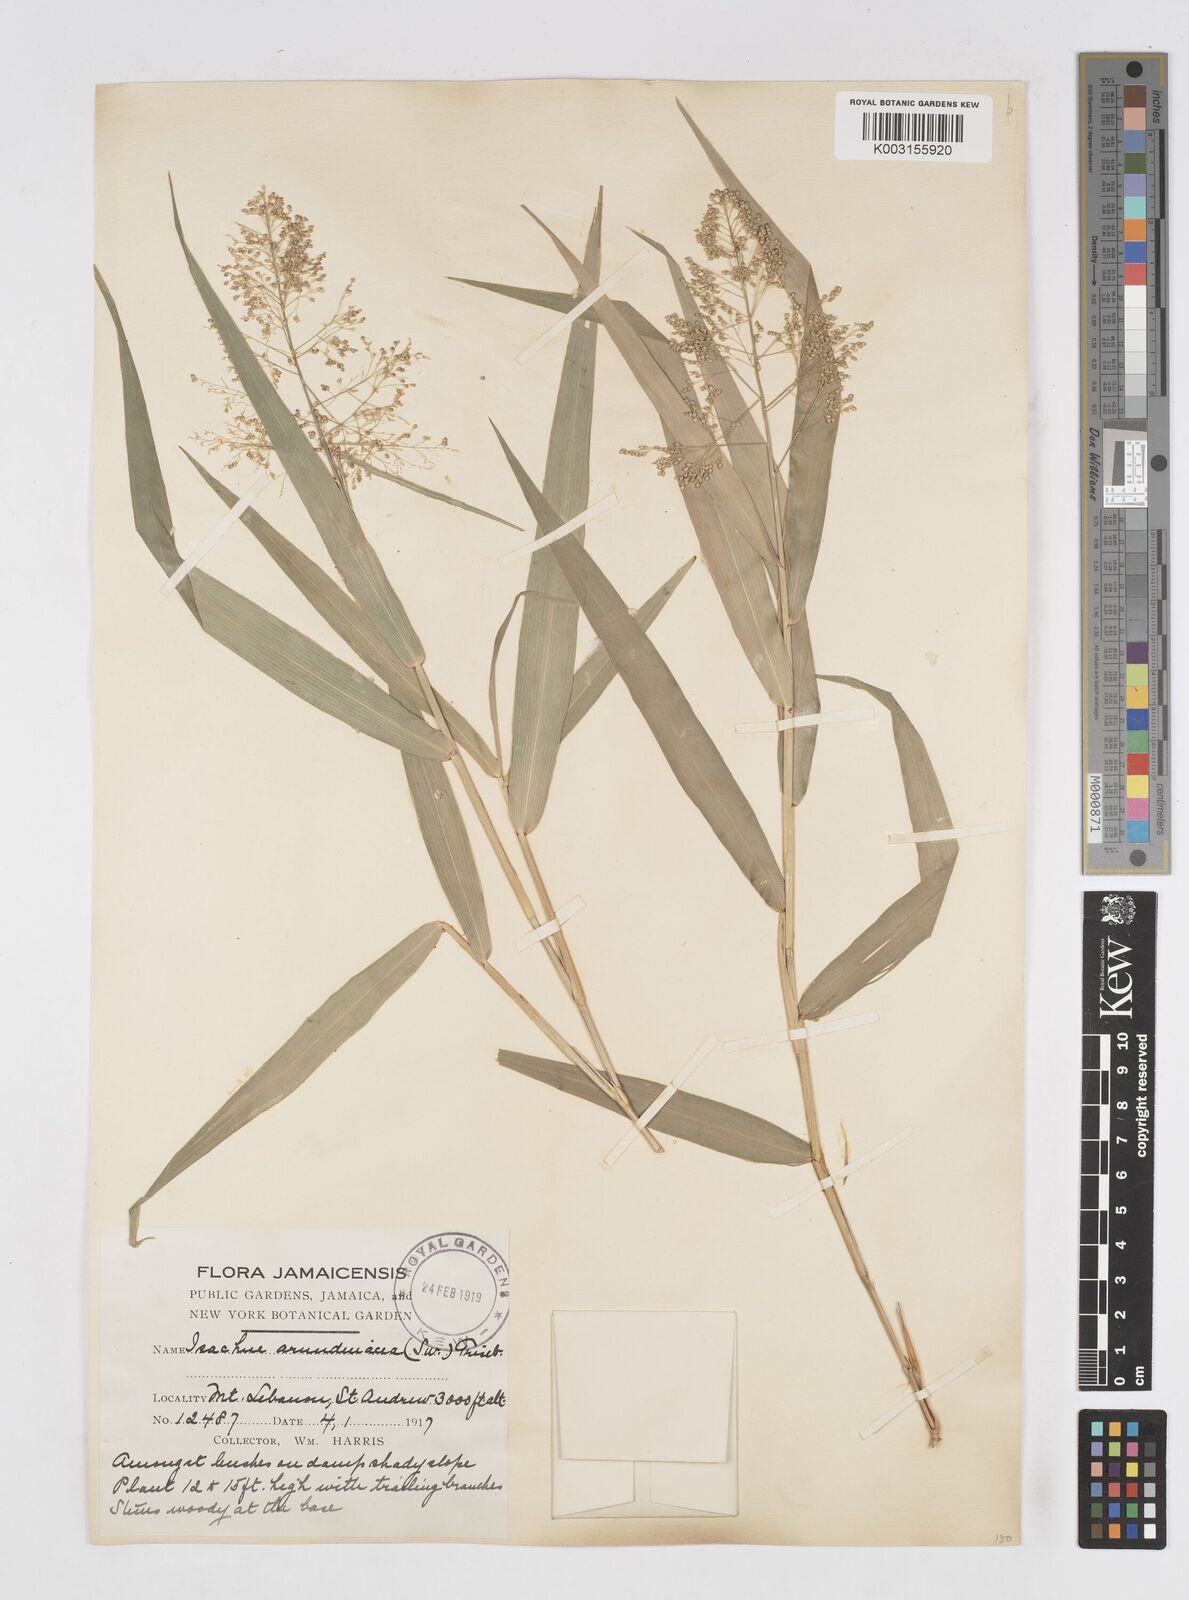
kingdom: Plantae
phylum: Tracheophyta
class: Liliopsida
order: Poales
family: Poaceae
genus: Isachne
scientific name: Isachne arundinacea
